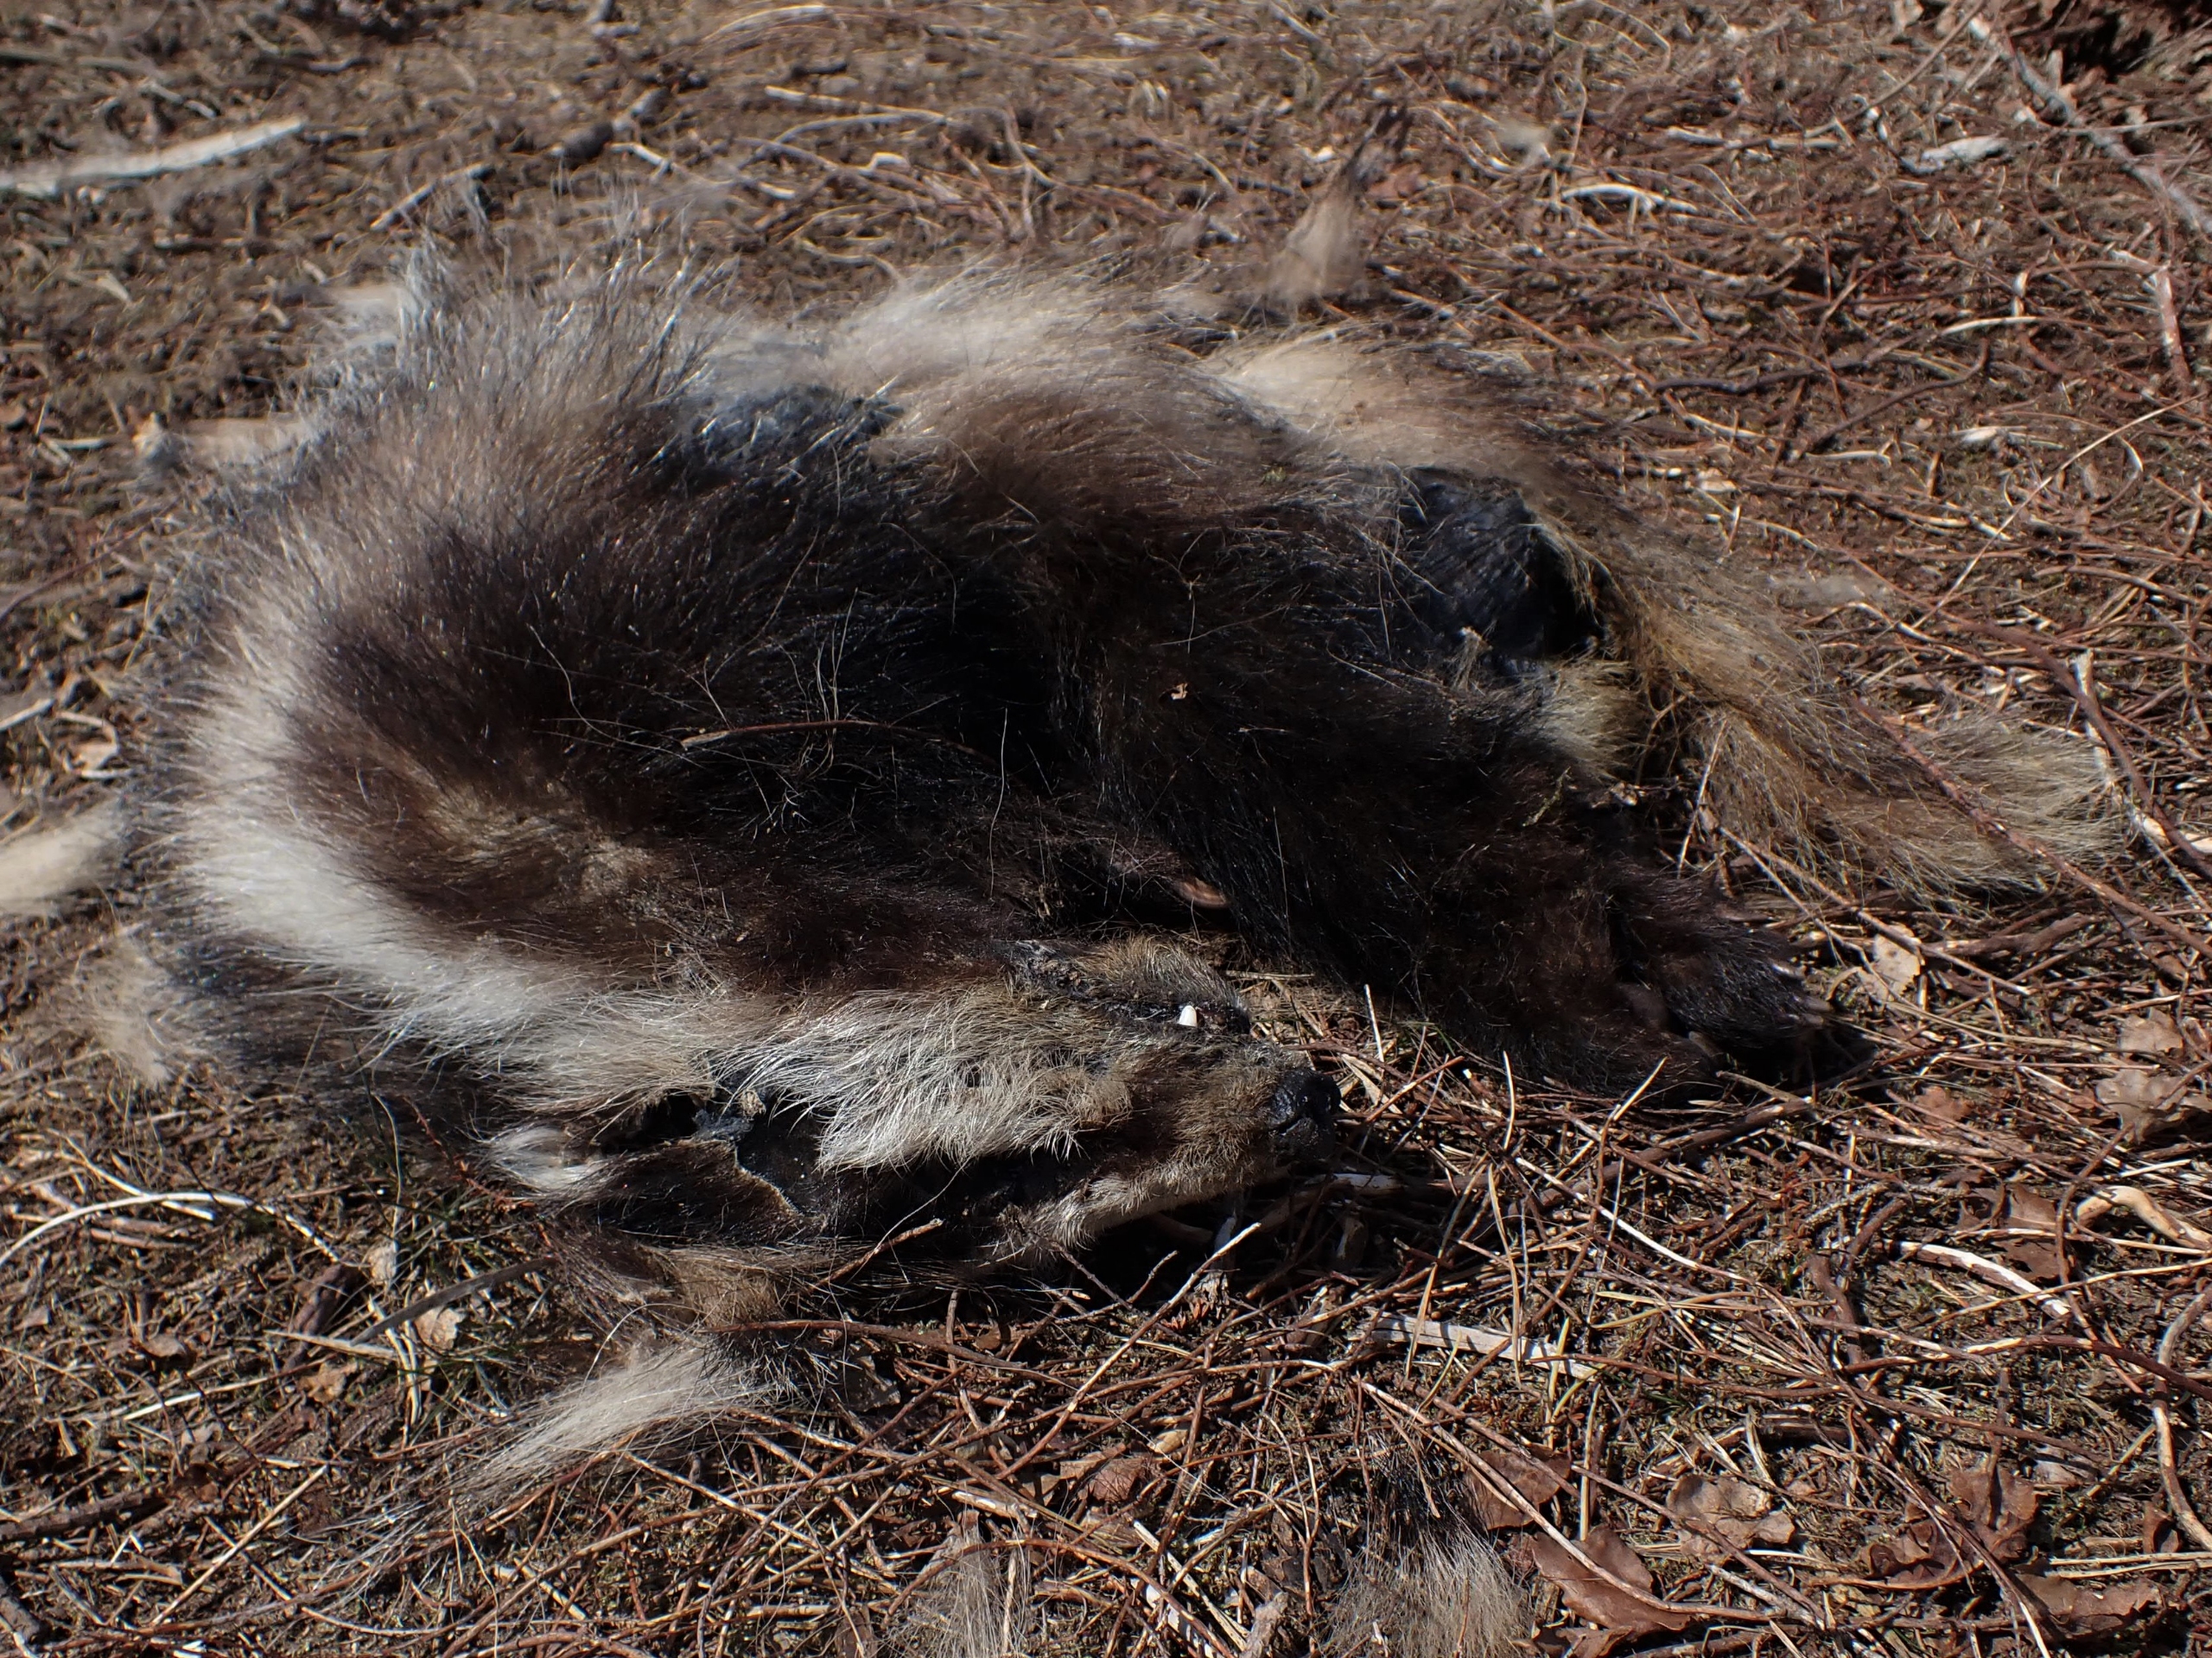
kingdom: Animalia
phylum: Chordata
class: Mammalia
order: Carnivora
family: Mustelidae
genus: Meles
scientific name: Meles meles
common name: Grævling
